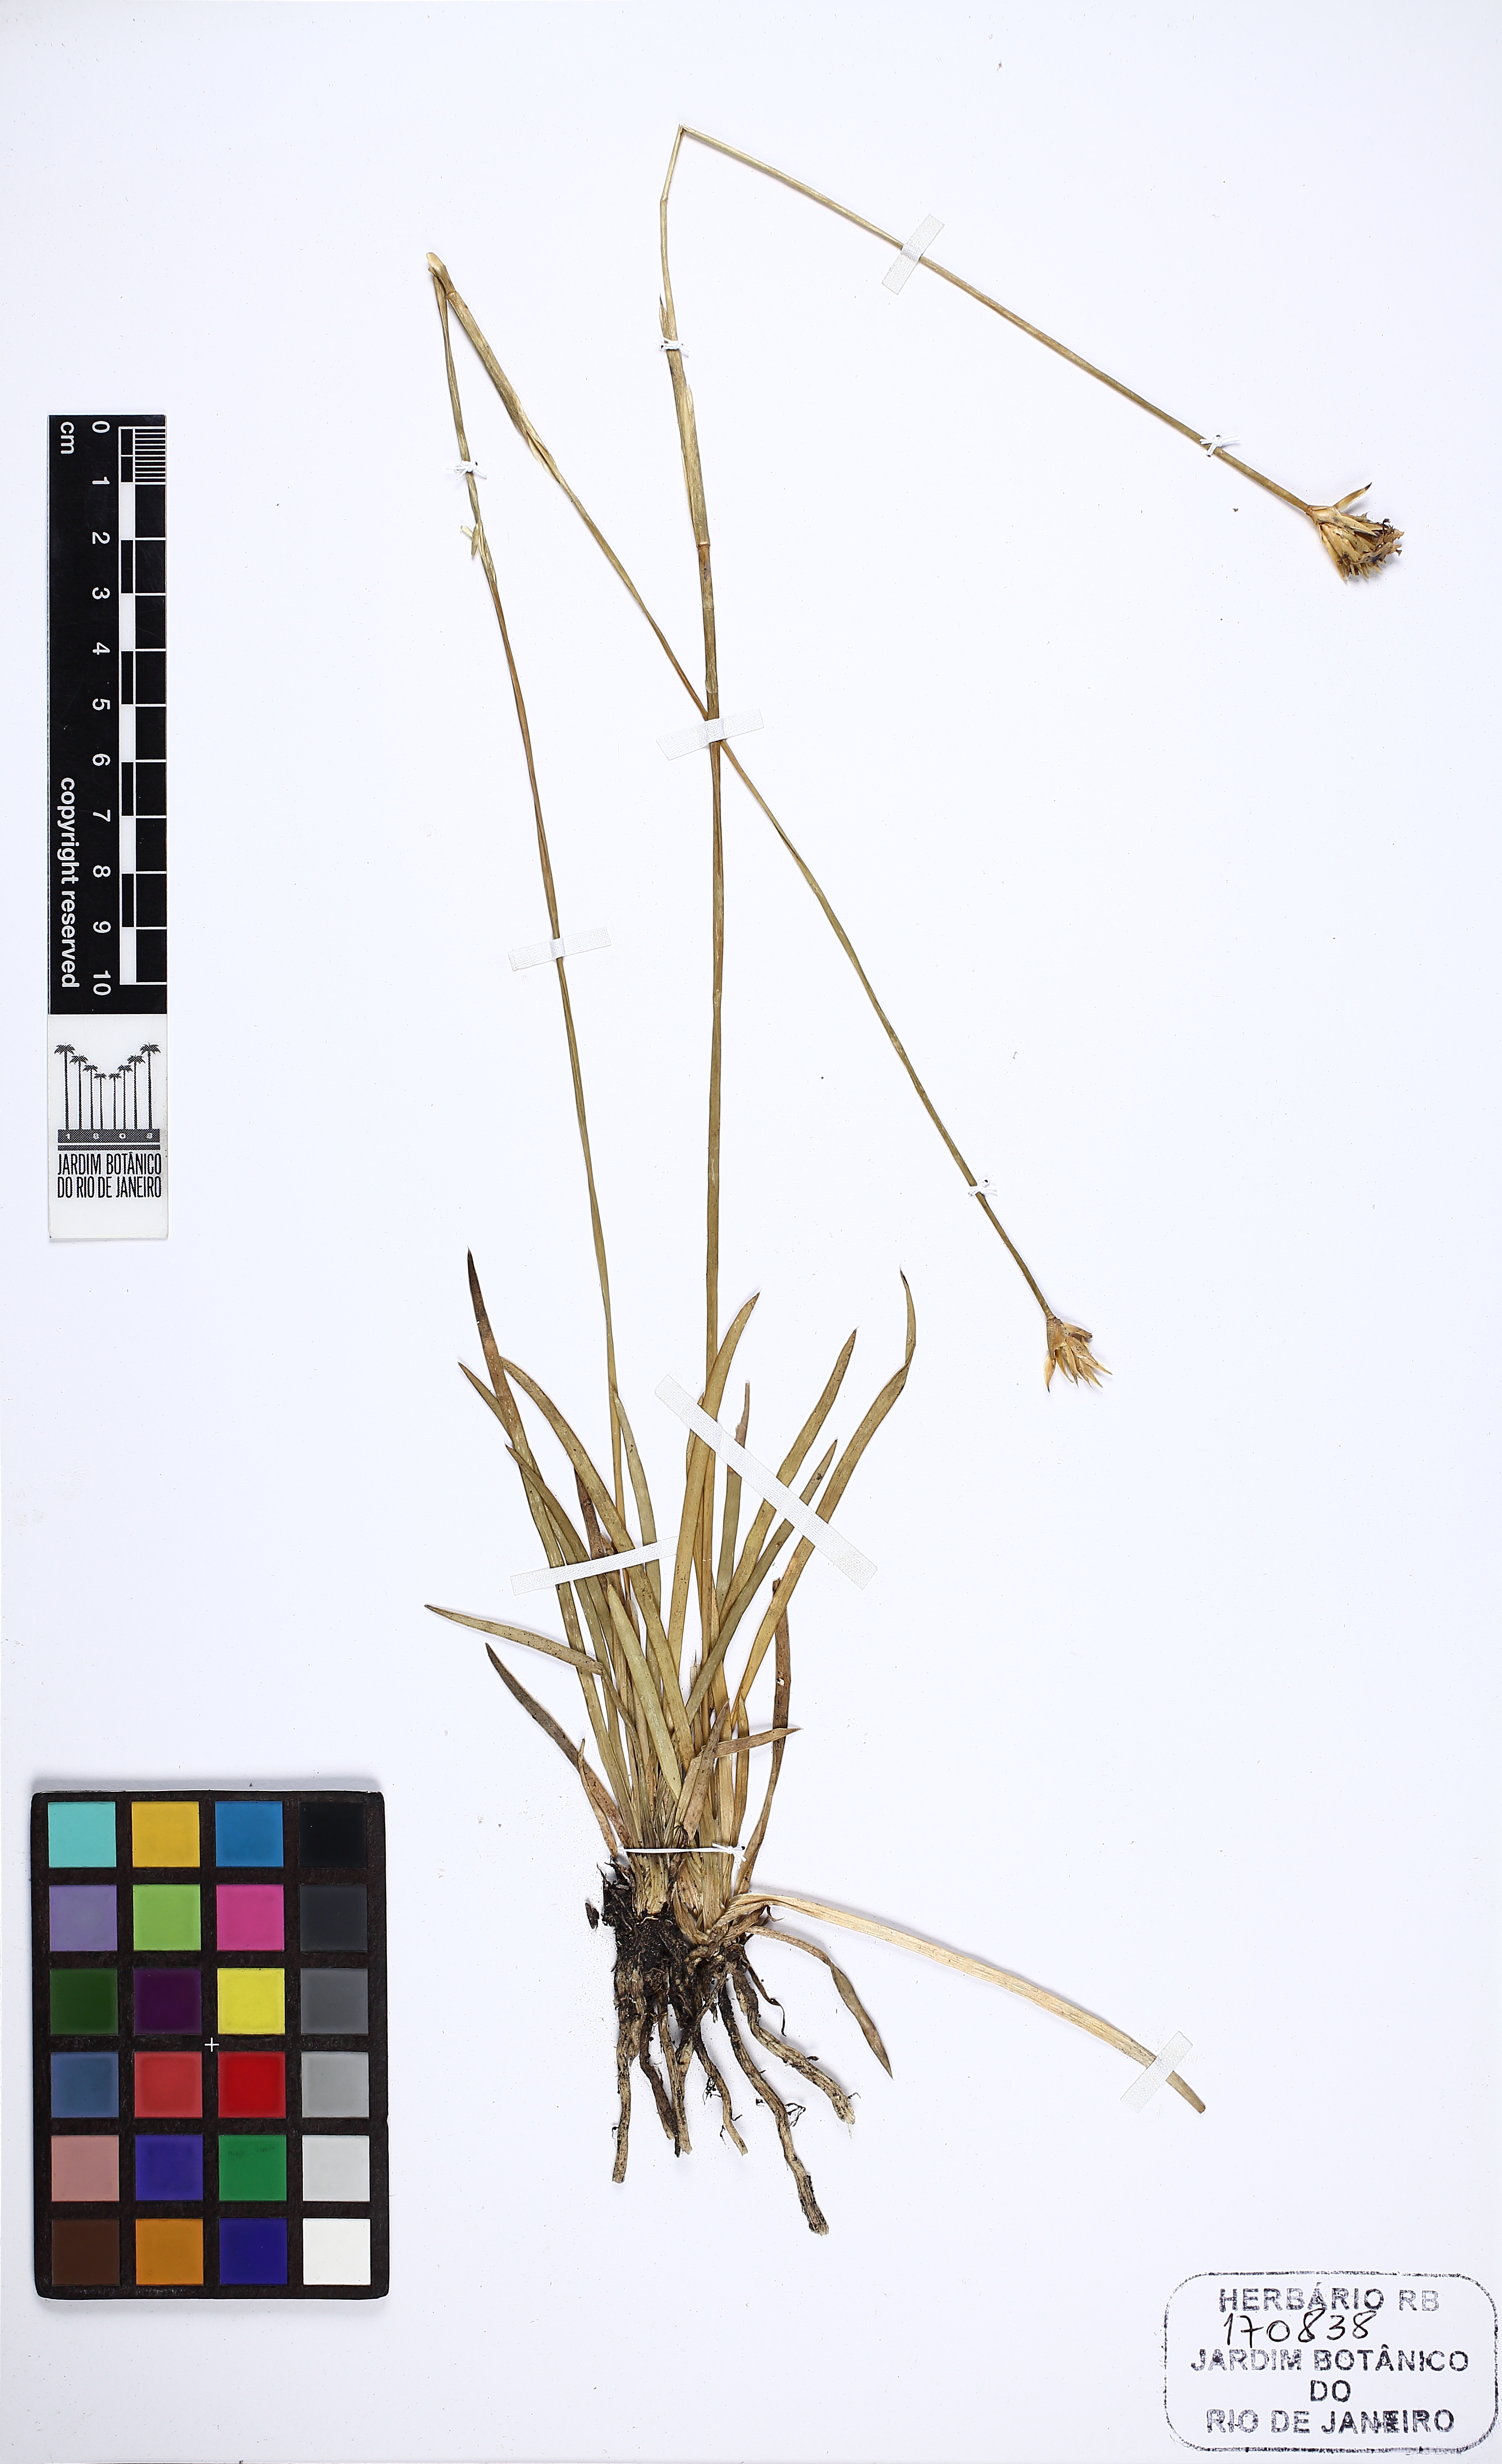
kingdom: Plantae
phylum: Tracheophyta
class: Liliopsida
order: Poales
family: Xyridaceae
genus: Abolboda
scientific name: Abolboda poarchon
